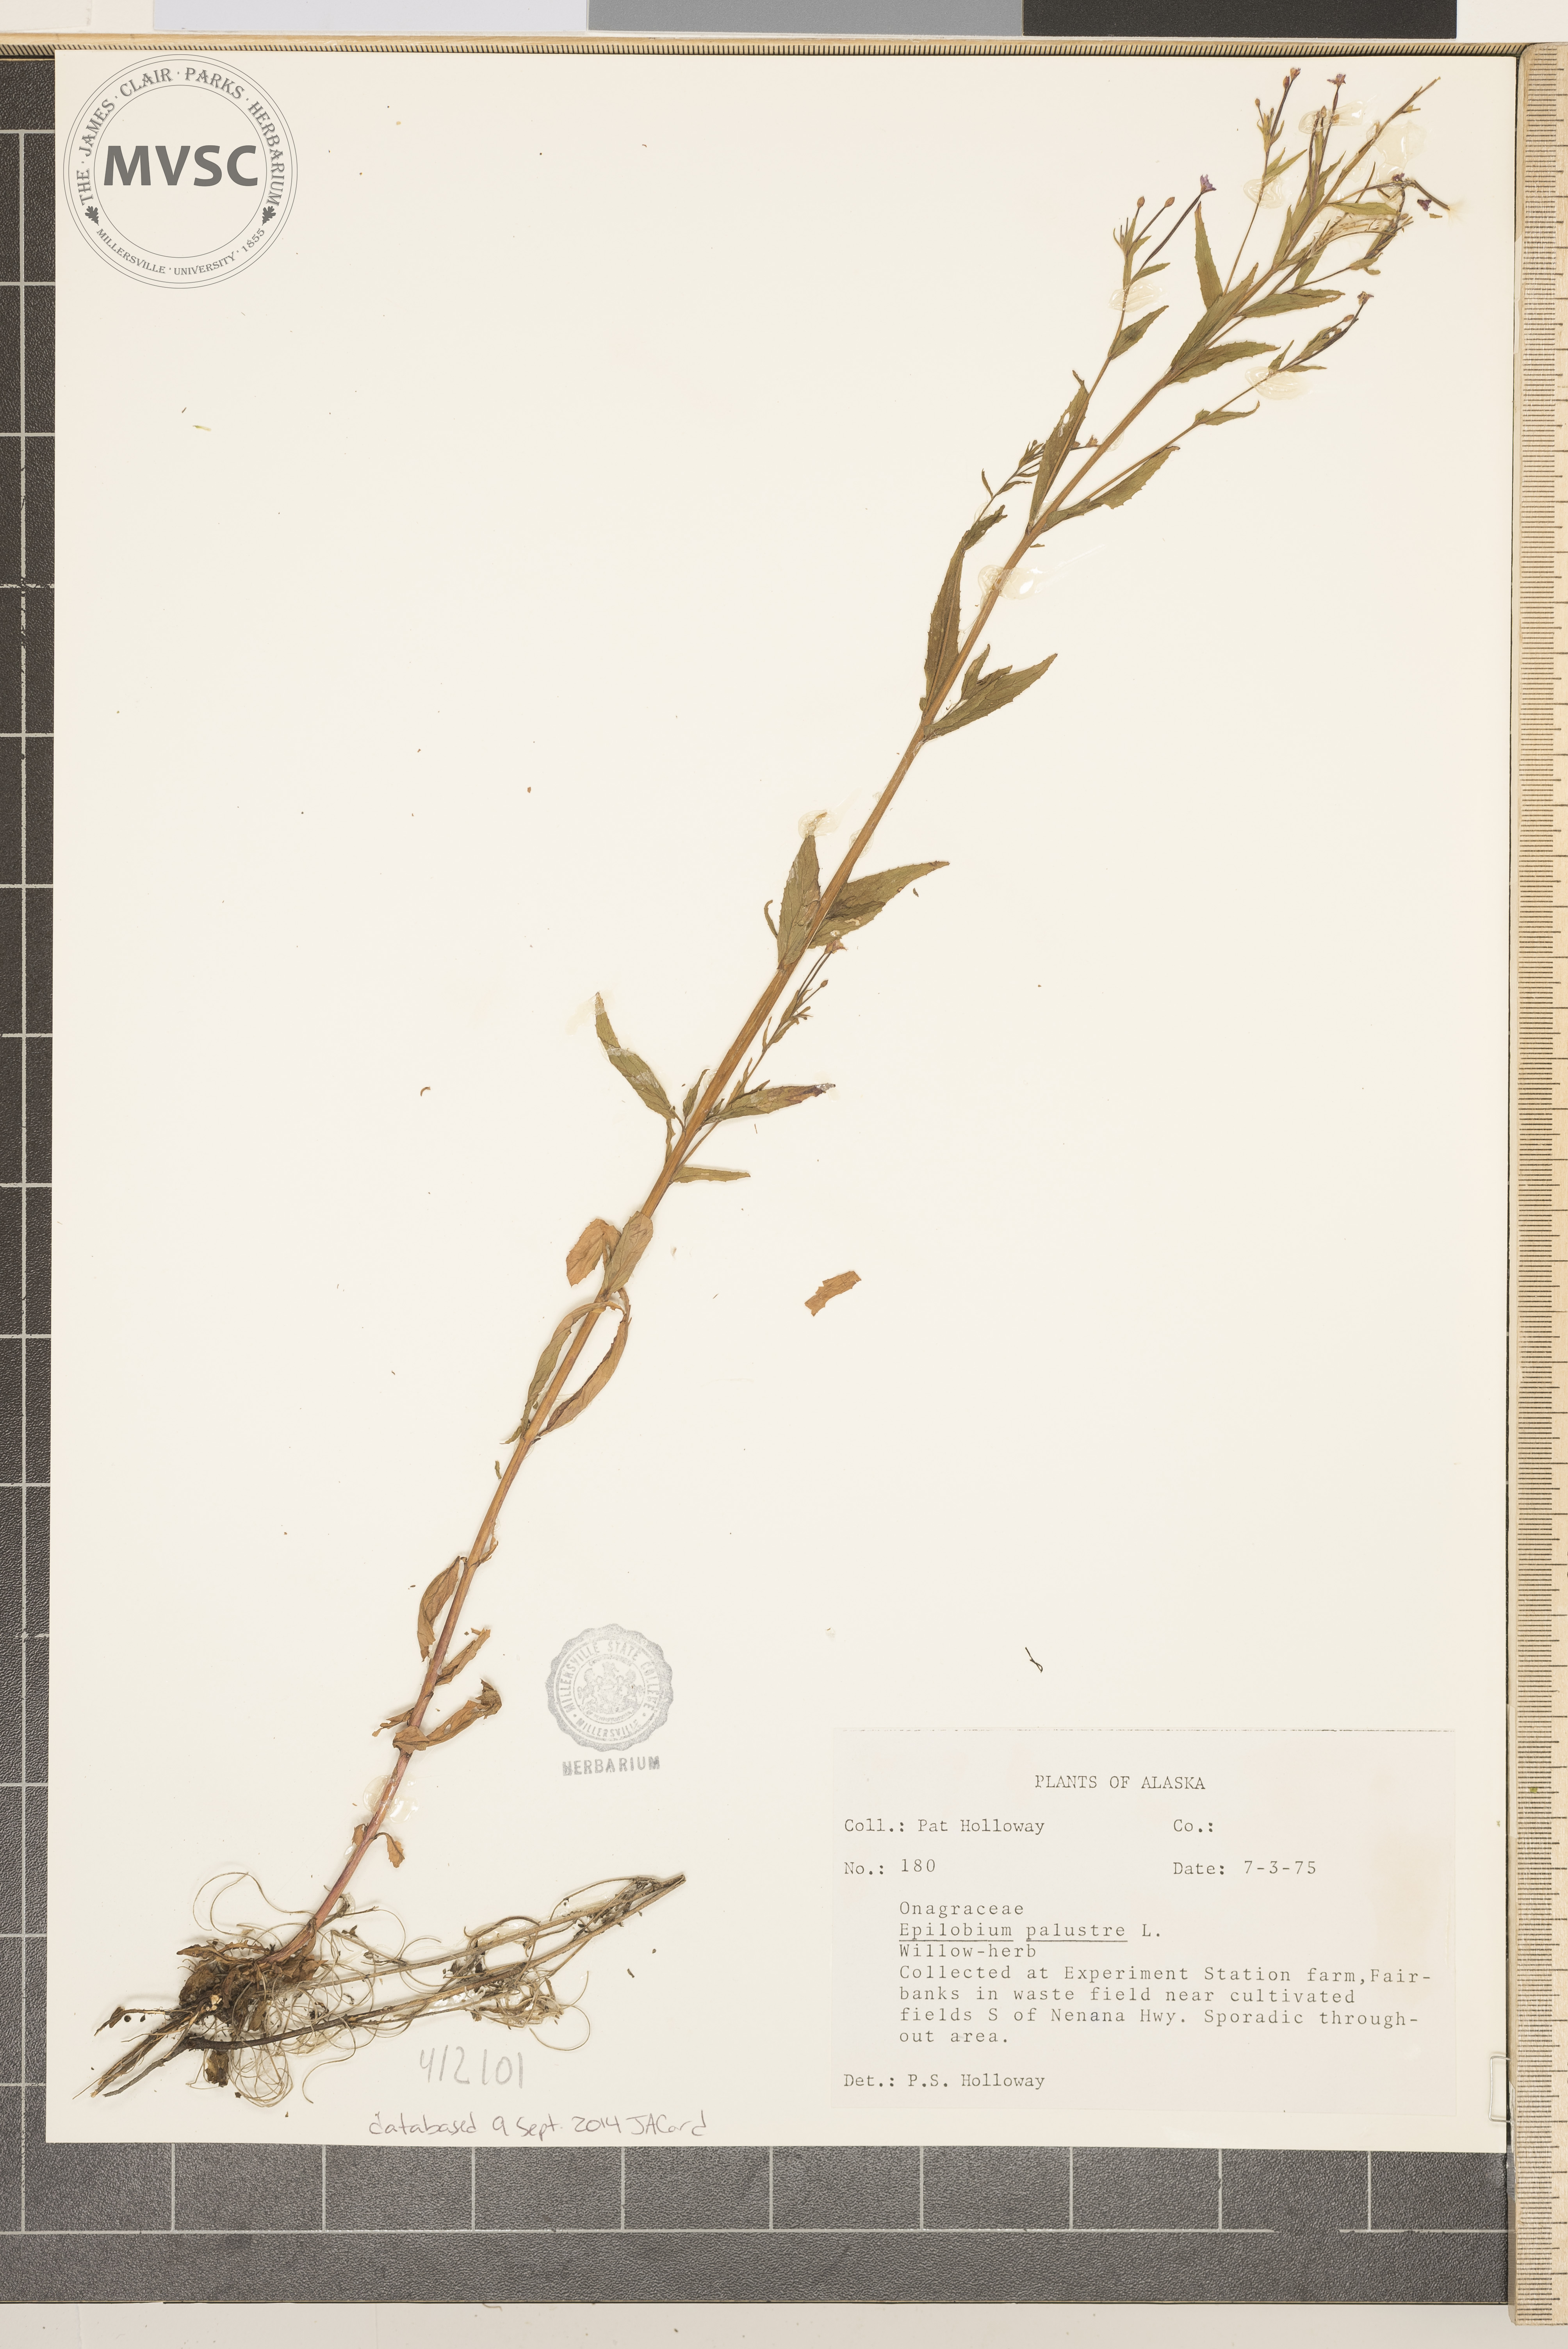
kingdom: Plantae
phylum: Tracheophyta
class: Magnoliopsida
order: Myrtales
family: Onagraceae
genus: Epilobium
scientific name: Epilobium palustre
